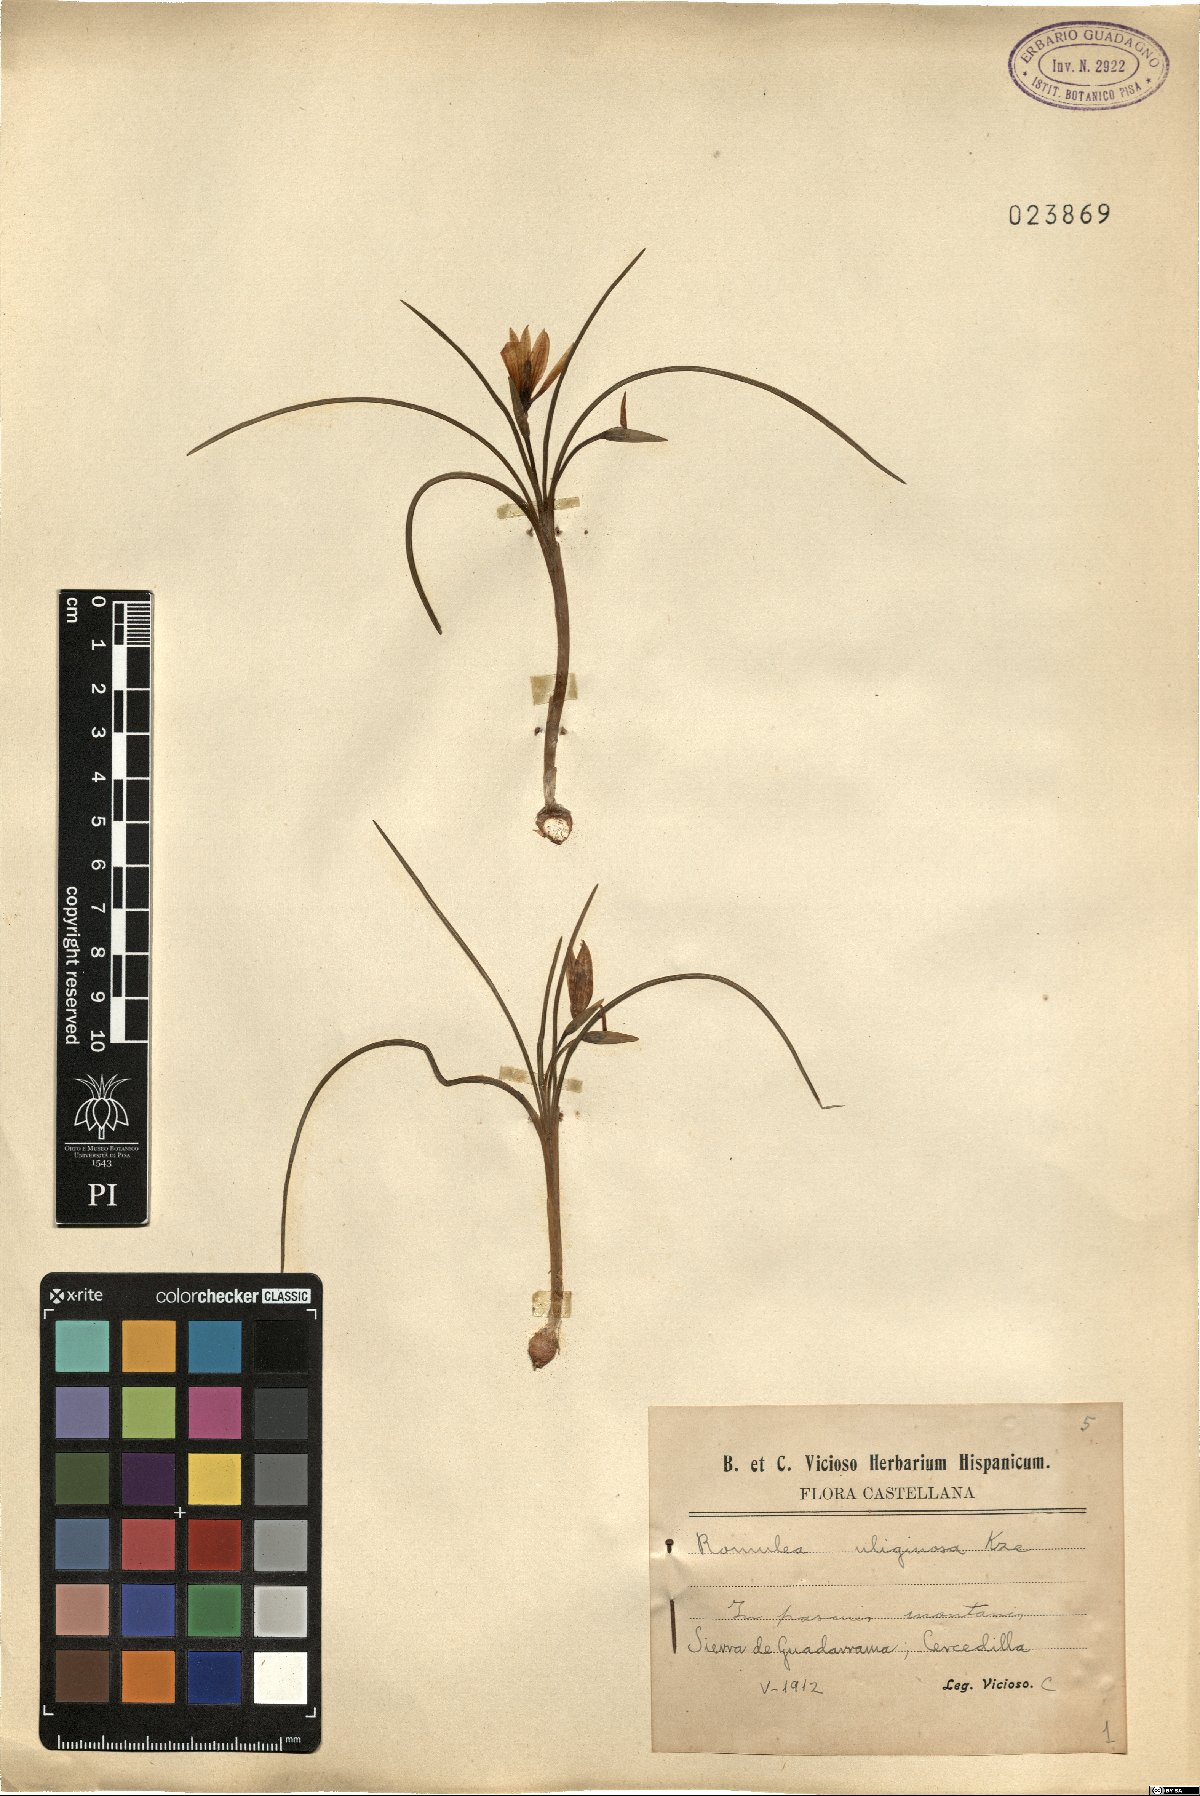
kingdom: Plantae
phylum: Tracheophyta
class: Liliopsida
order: Asparagales
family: Iridaceae
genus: Romulea
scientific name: Romulea bulbocodium
